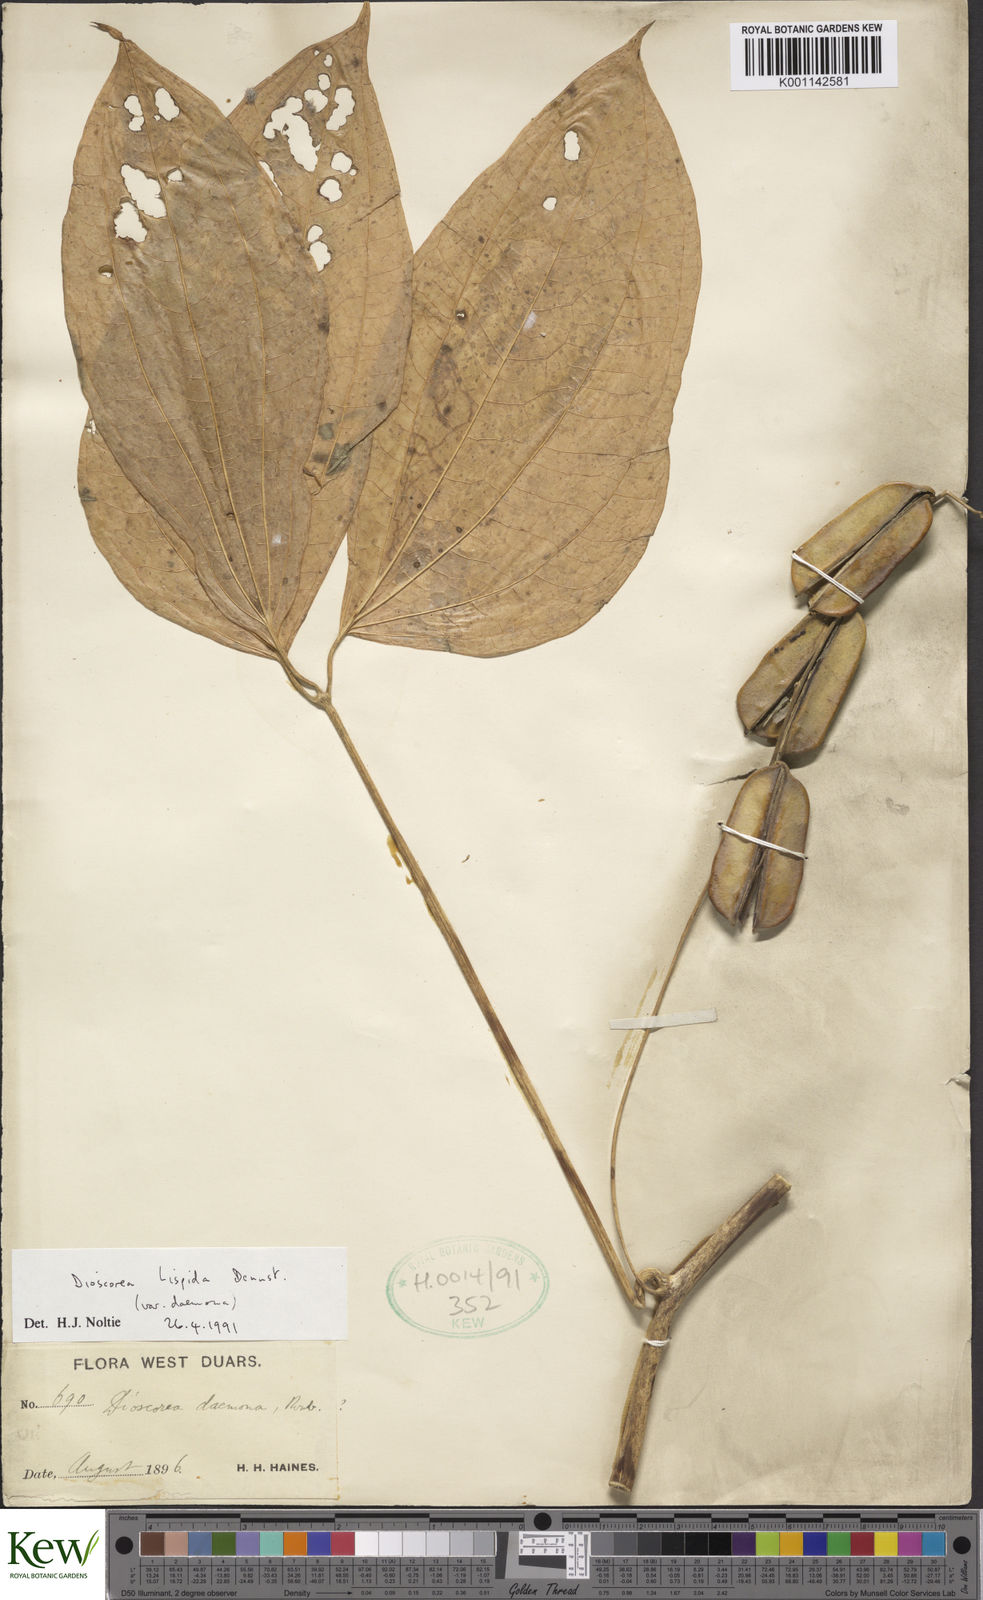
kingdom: Plantae
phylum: Tracheophyta
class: Liliopsida
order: Dioscoreales
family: Dioscoreaceae
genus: Dioscorea
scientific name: Dioscorea pentaphylla
